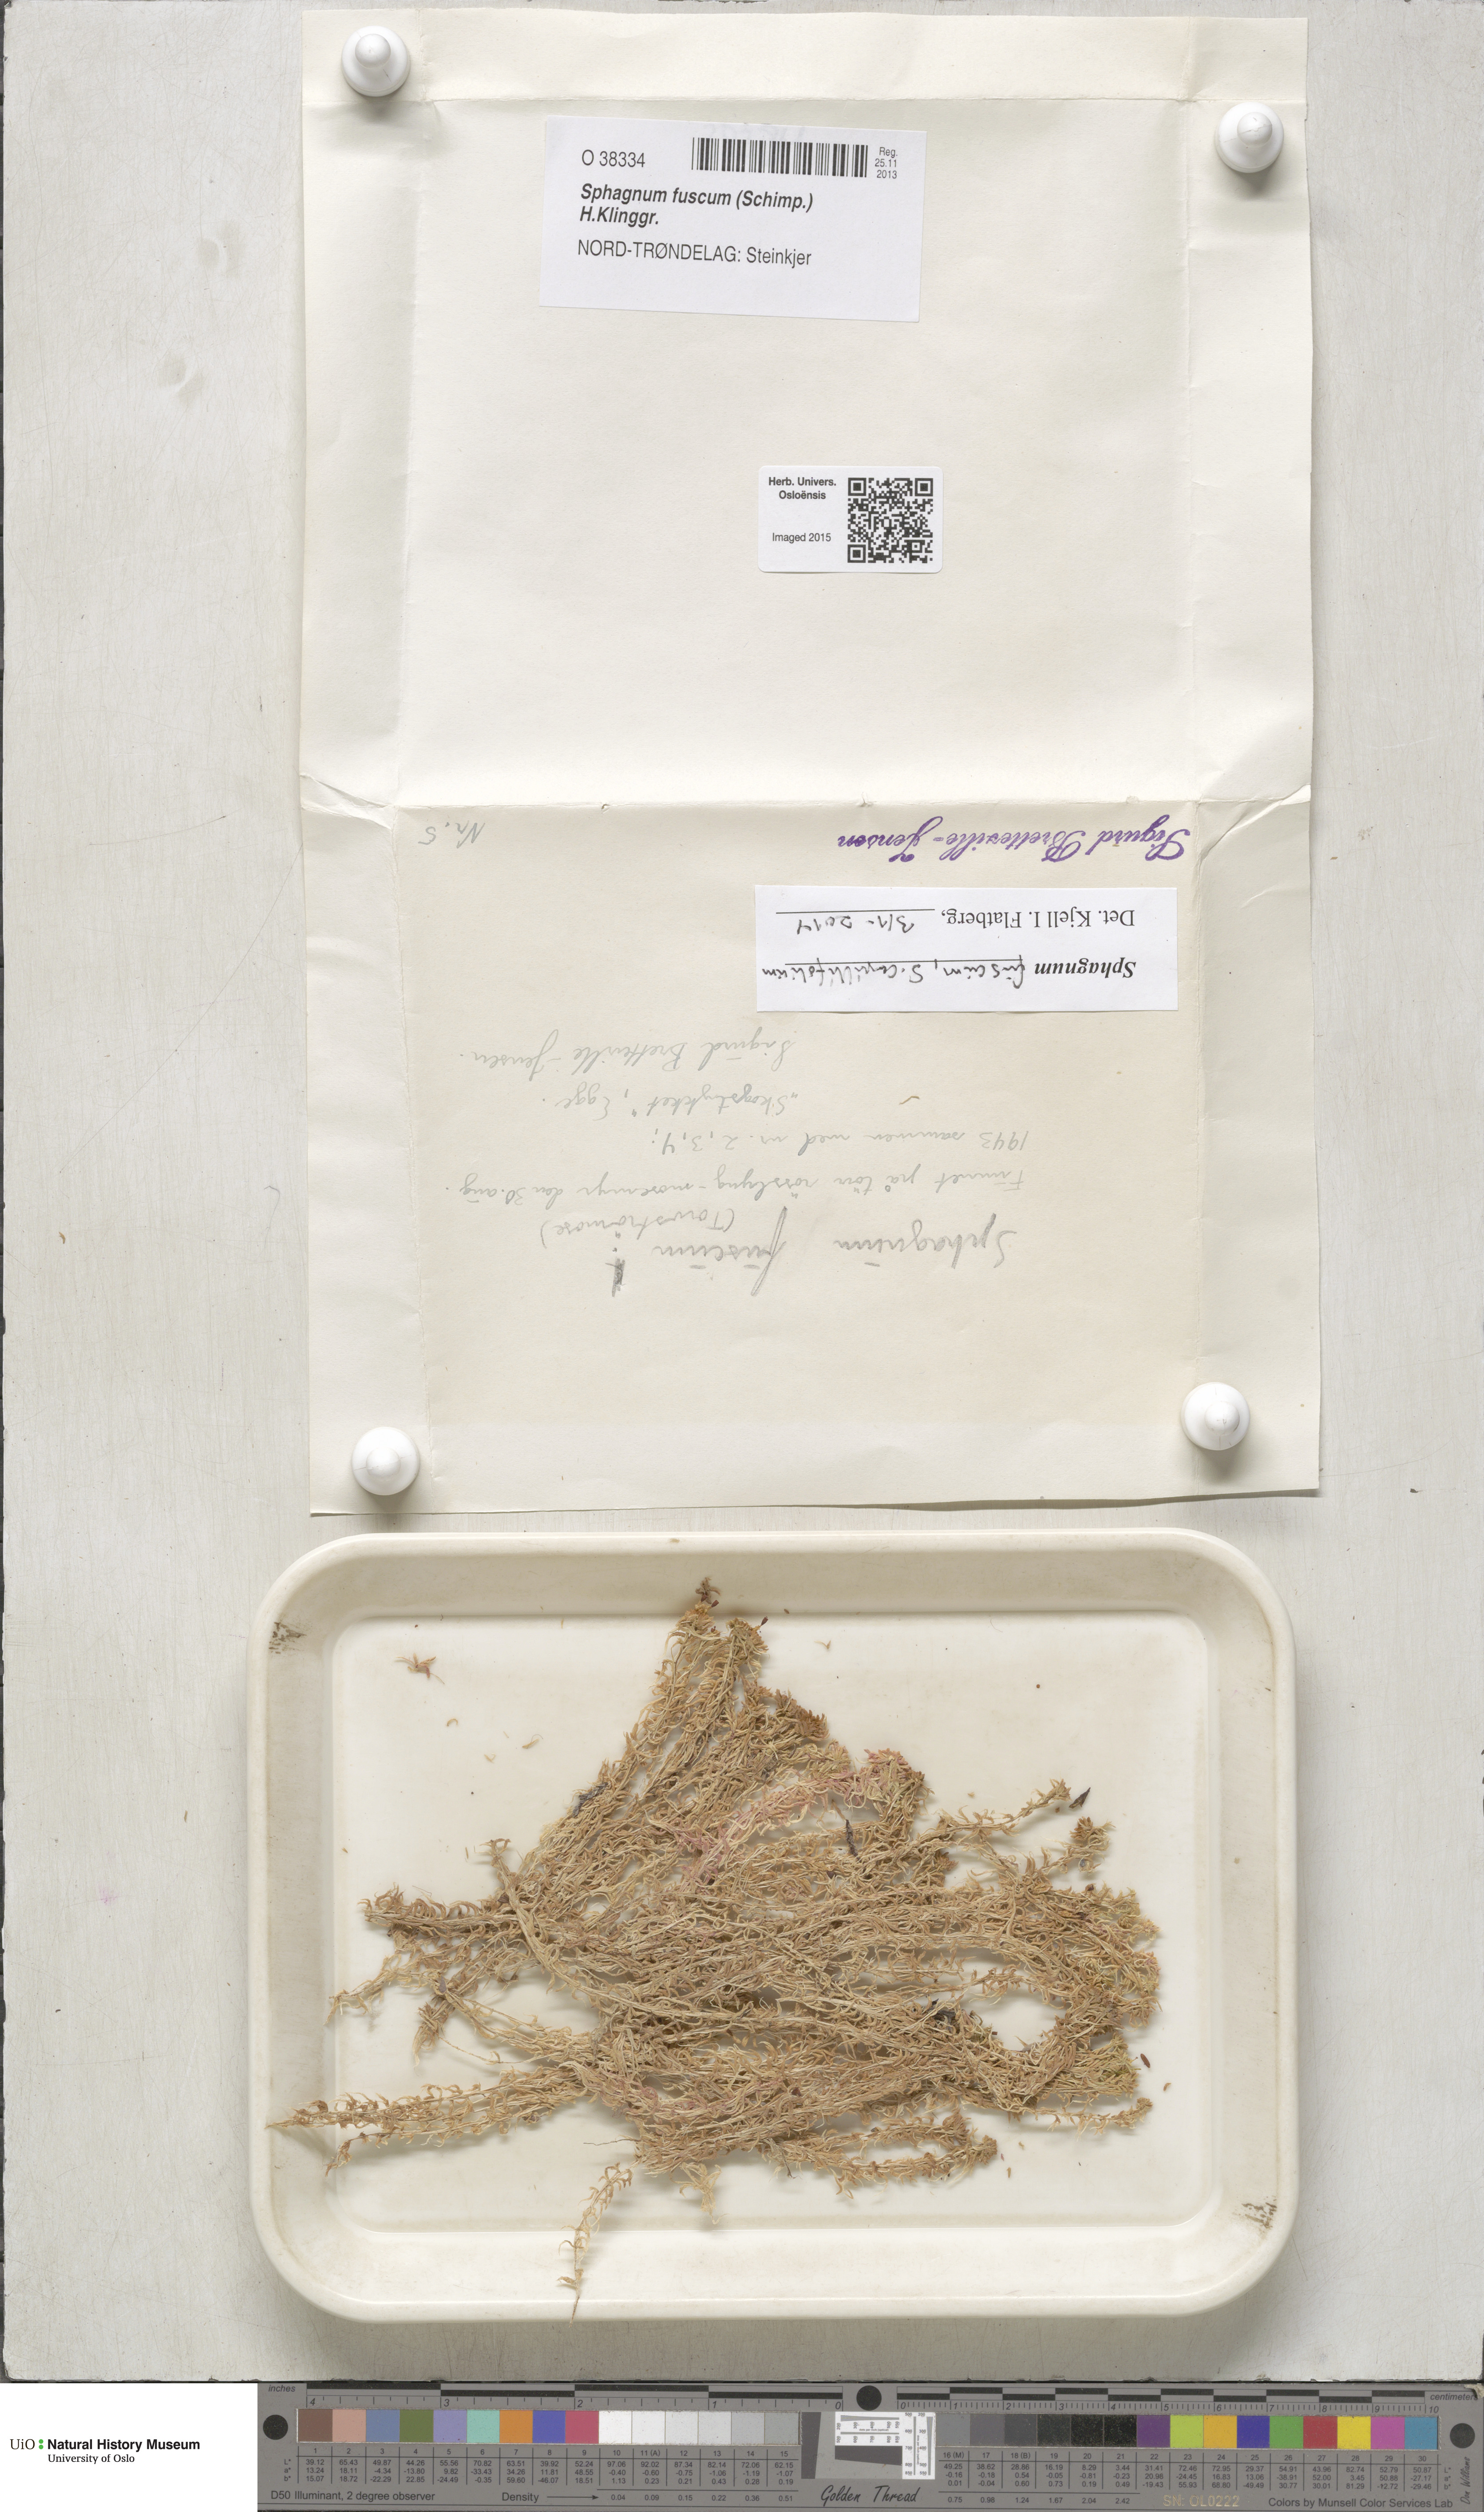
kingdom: Plantae
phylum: Bryophyta
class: Sphagnopsida
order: Sphagnales
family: Sphagnaceae
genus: Sphagnum
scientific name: Sphagnum fuscum
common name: Brown peat moss
